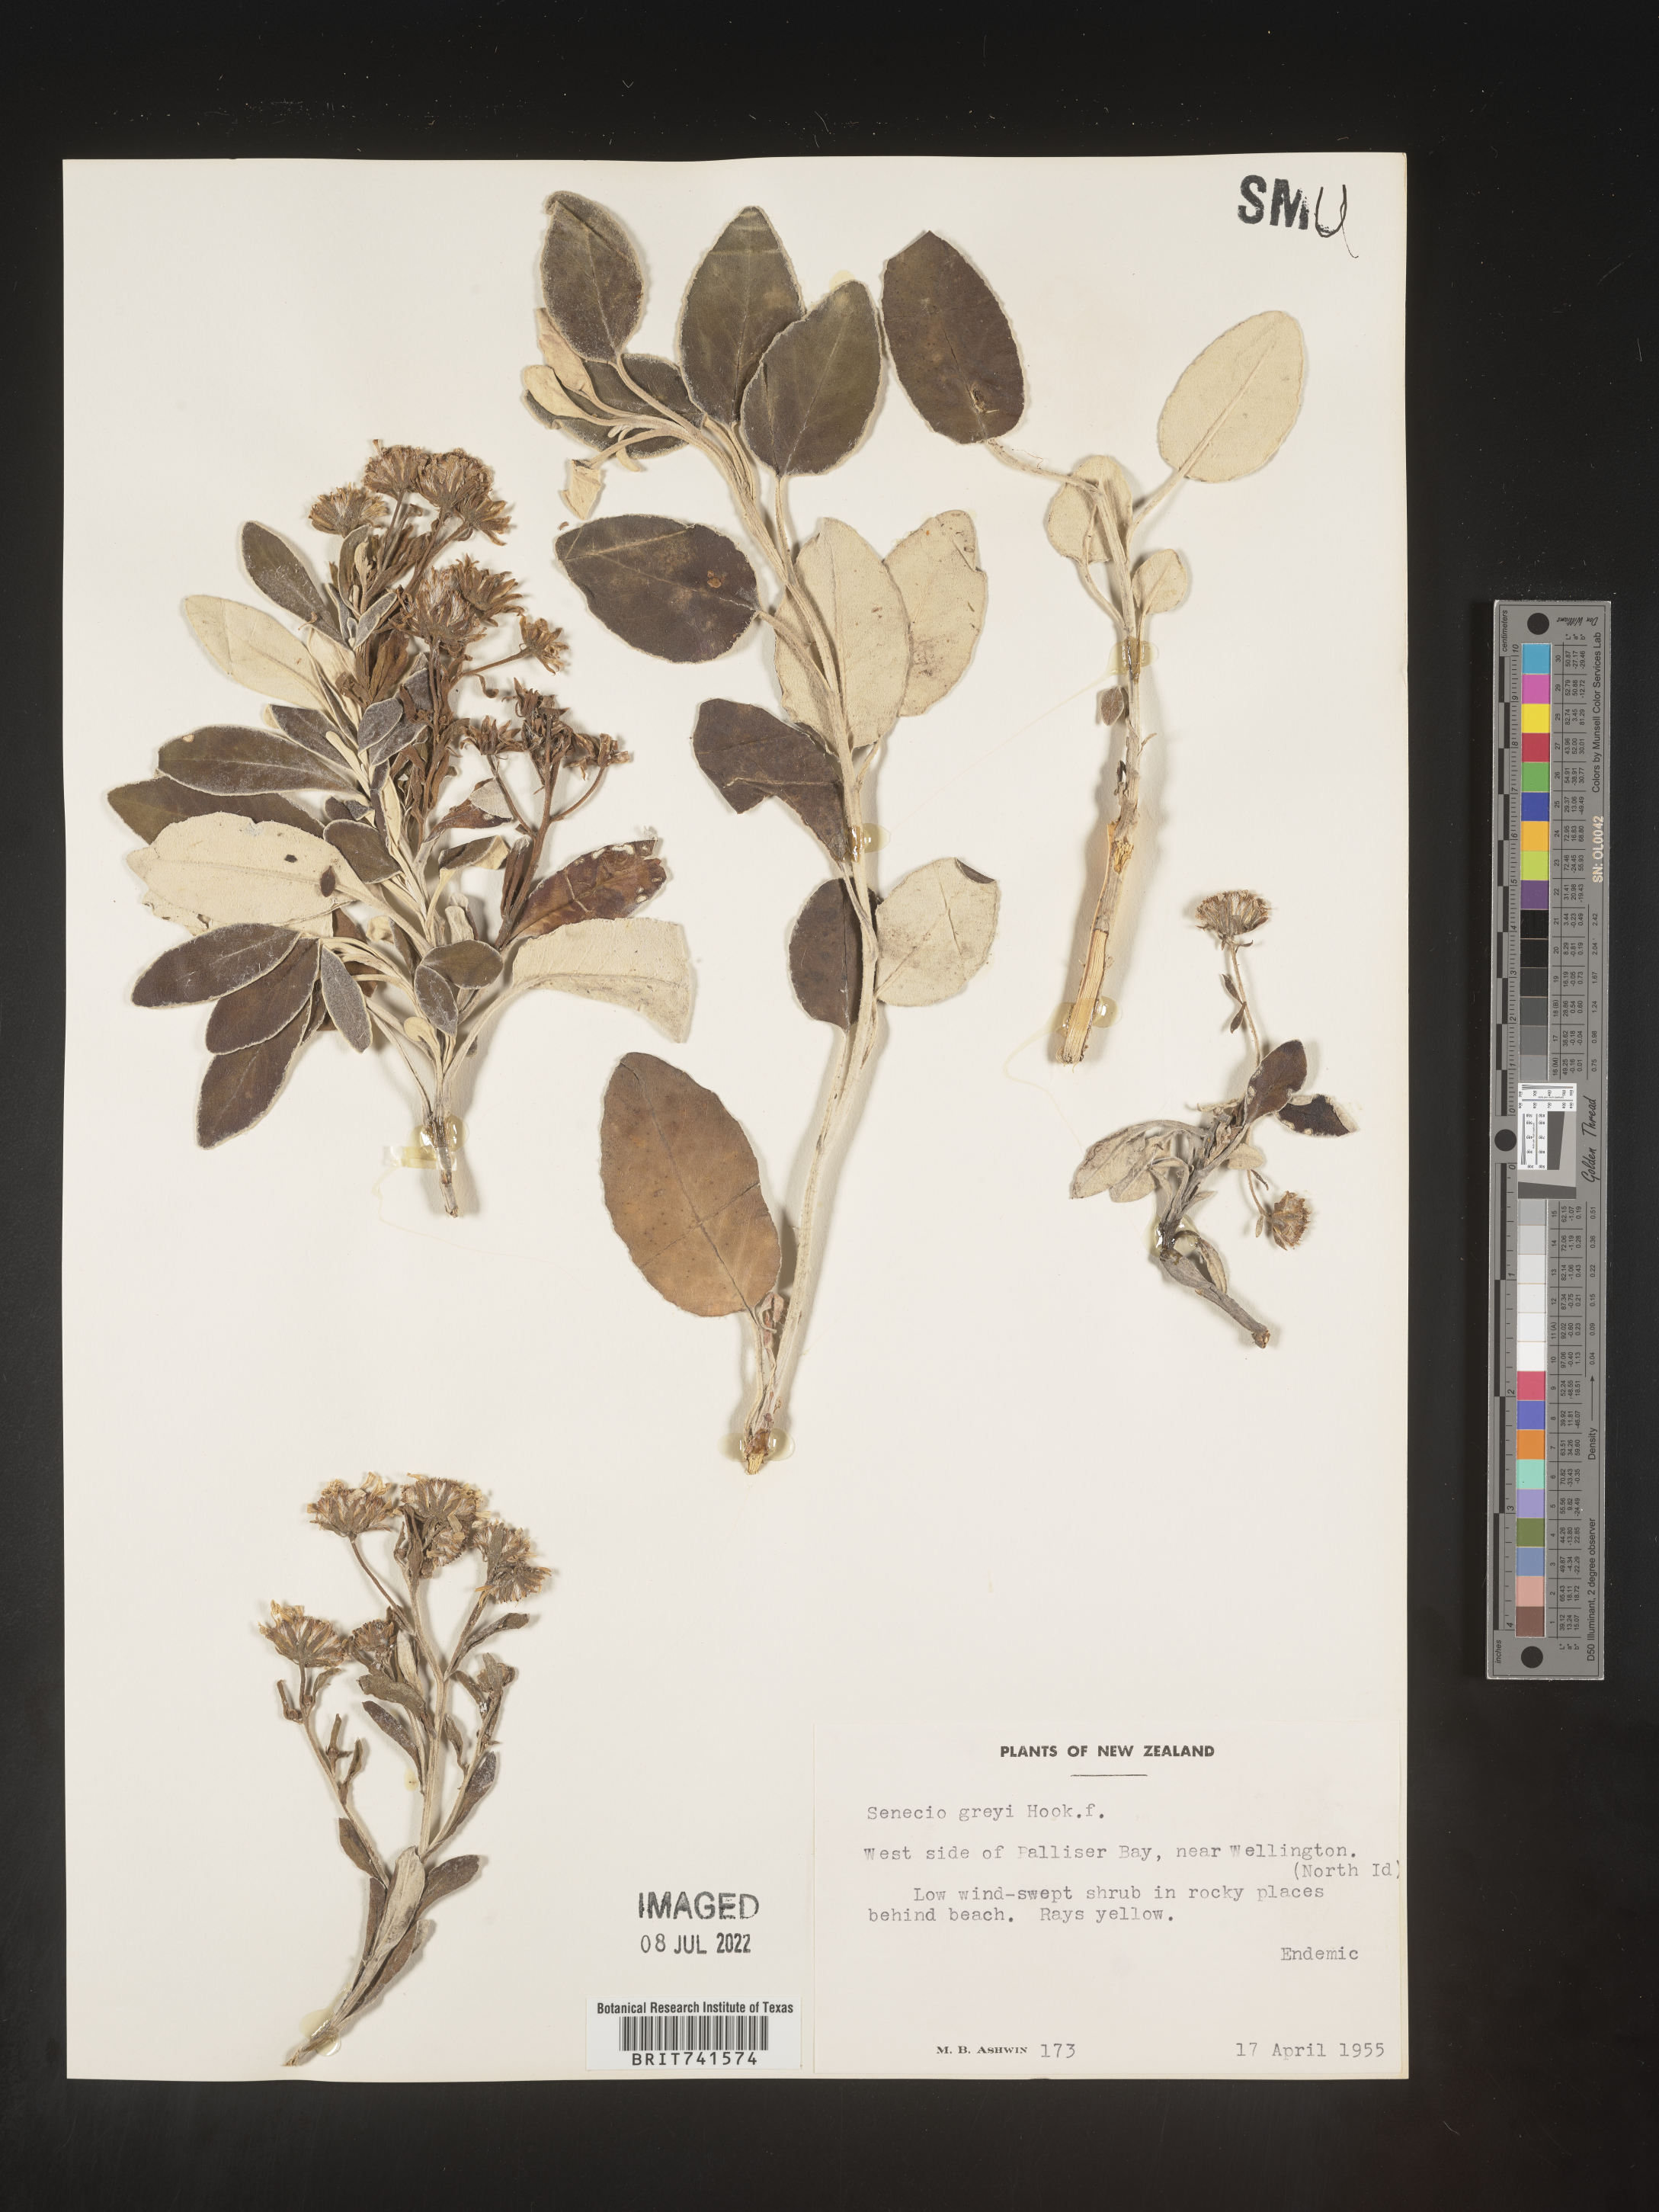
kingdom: Plantae
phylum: Tracheophyta
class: Magnoliopsida
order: Asterales
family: Asteraceae
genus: Senecio
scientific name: Senecio
